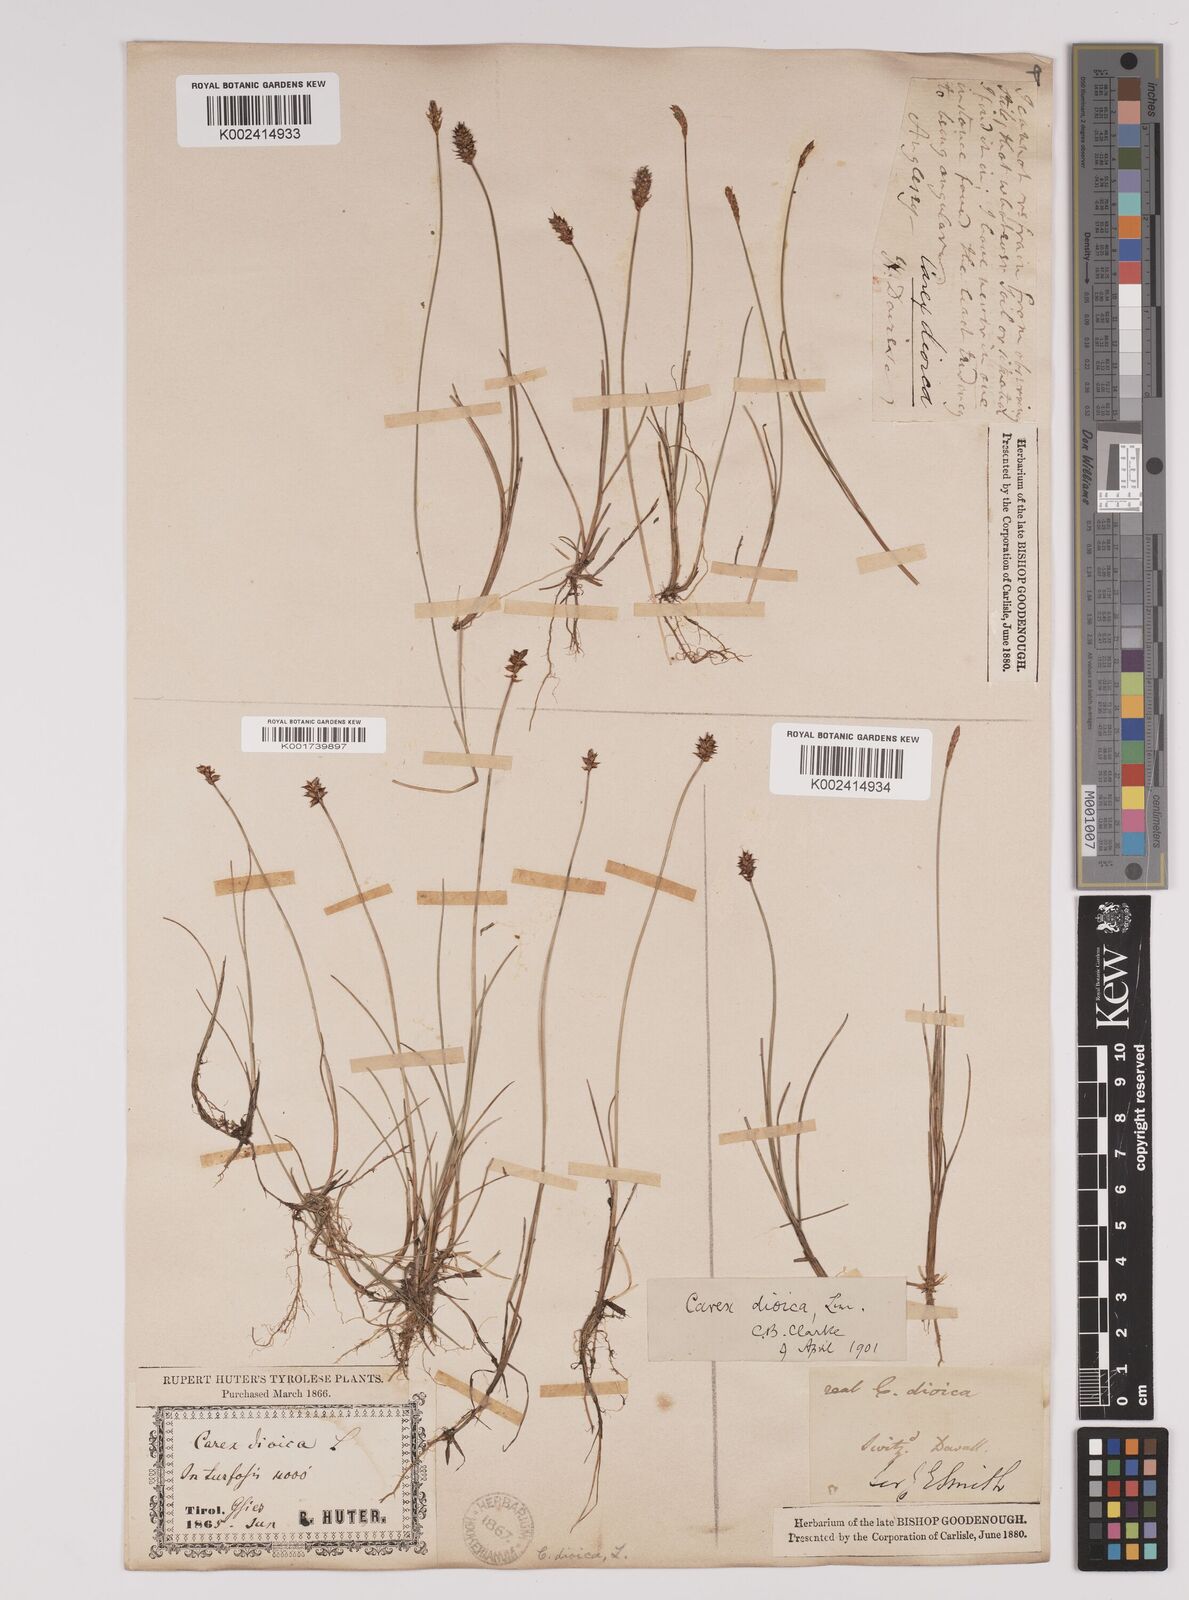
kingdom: Plantae
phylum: Tracheophyta
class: Liliopsida
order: Poales
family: Cyperaceae
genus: Carex
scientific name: Carex dioica
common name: Dioecious sedge
